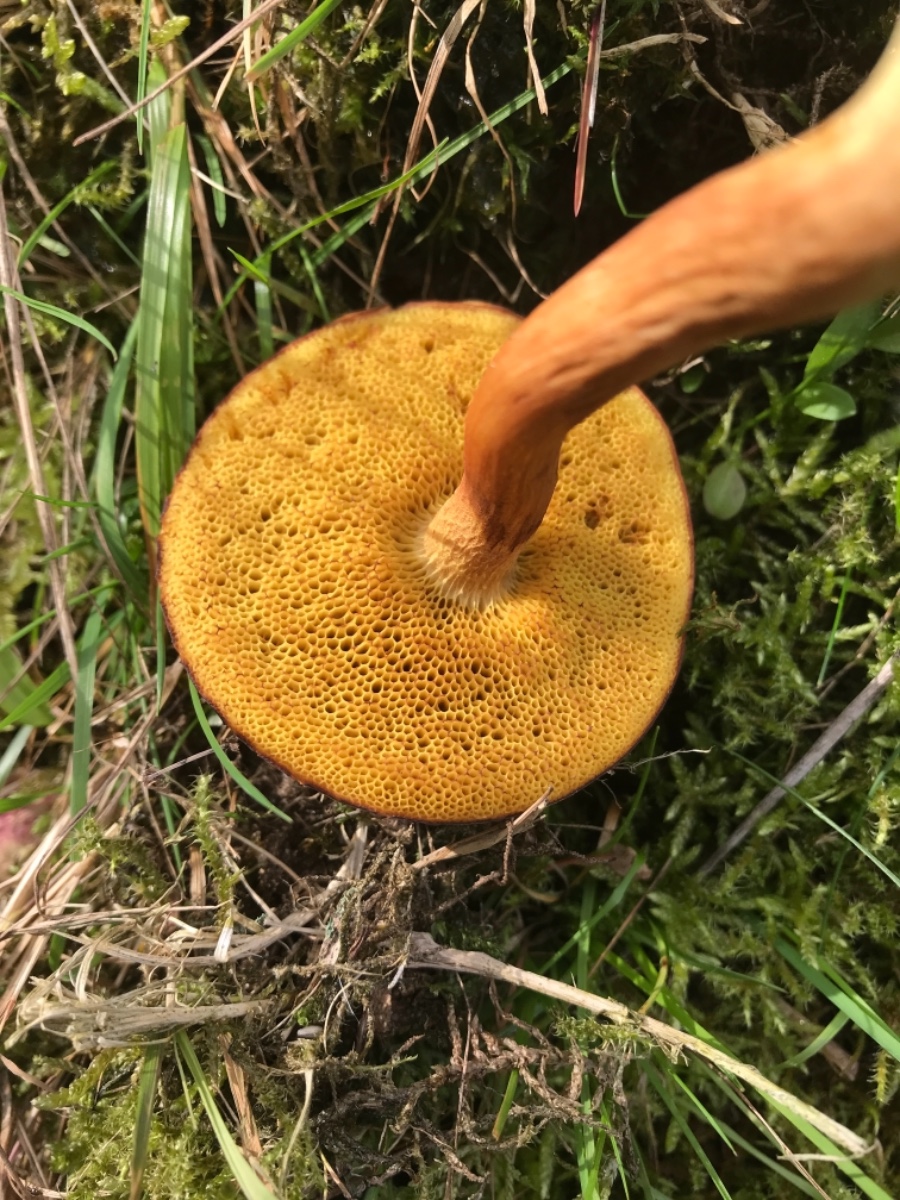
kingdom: Fungi
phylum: Basidiomycota
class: Agaricomycetes
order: Boletales
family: Boletaceae
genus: Xerocomus
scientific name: Xerocomus ferrugineus
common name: vaskeskinds-rørhat
